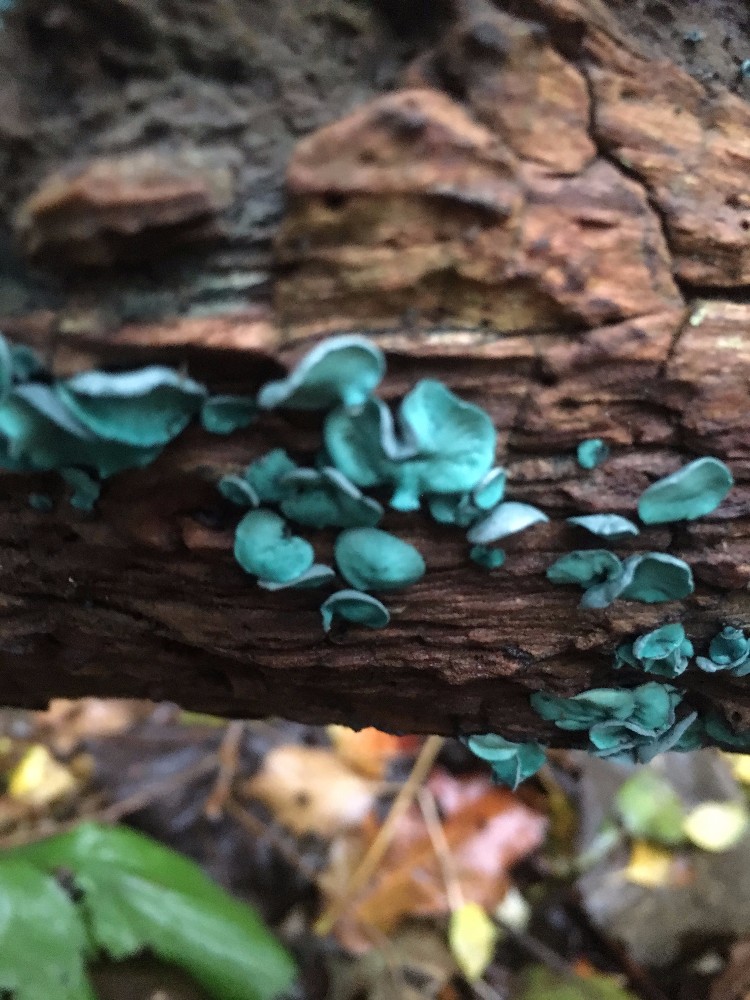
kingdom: Fungi
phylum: Ascomycota
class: Leotiomycetes
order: Helotiales
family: Chlorociboriaceae
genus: Chlorociboria
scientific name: Chlorociboria aeruginascens
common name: almindelig grønskive
